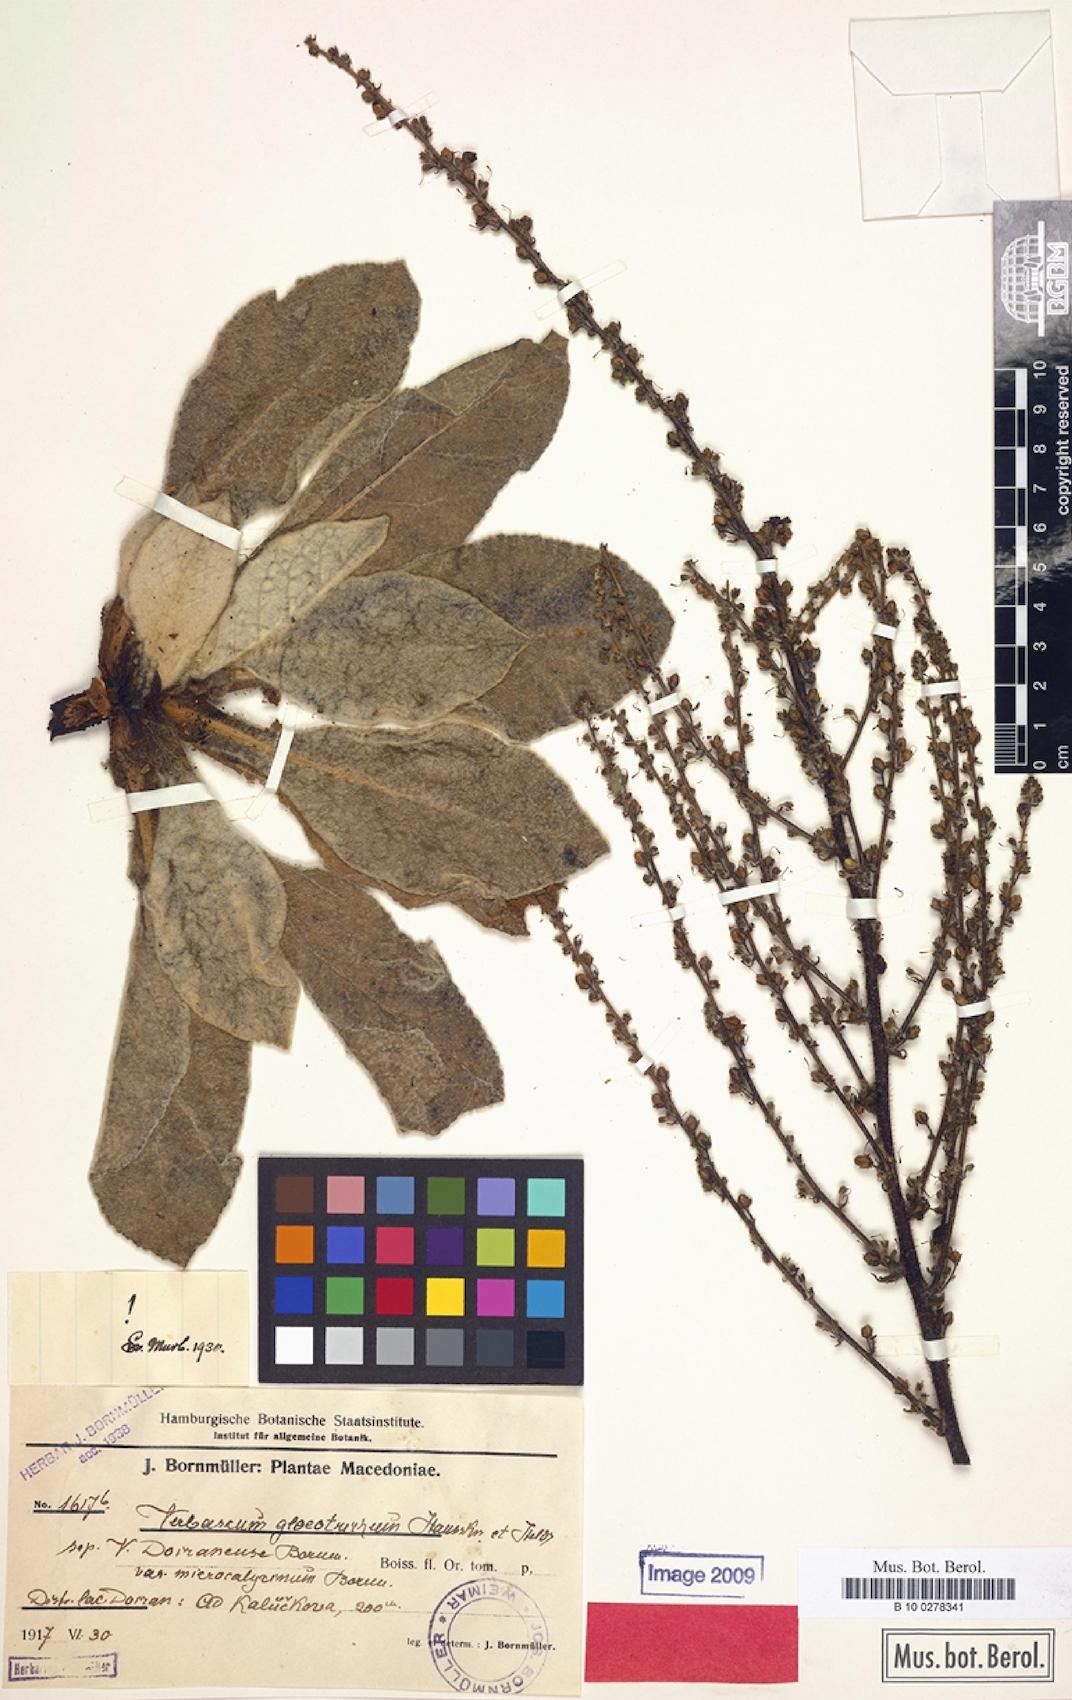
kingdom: Plantae
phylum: Tracheophyta
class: Magnoliopsida
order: Lamiales
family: Scrophulariaceae
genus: Verbascum
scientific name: Verbascum gloeotrichum
